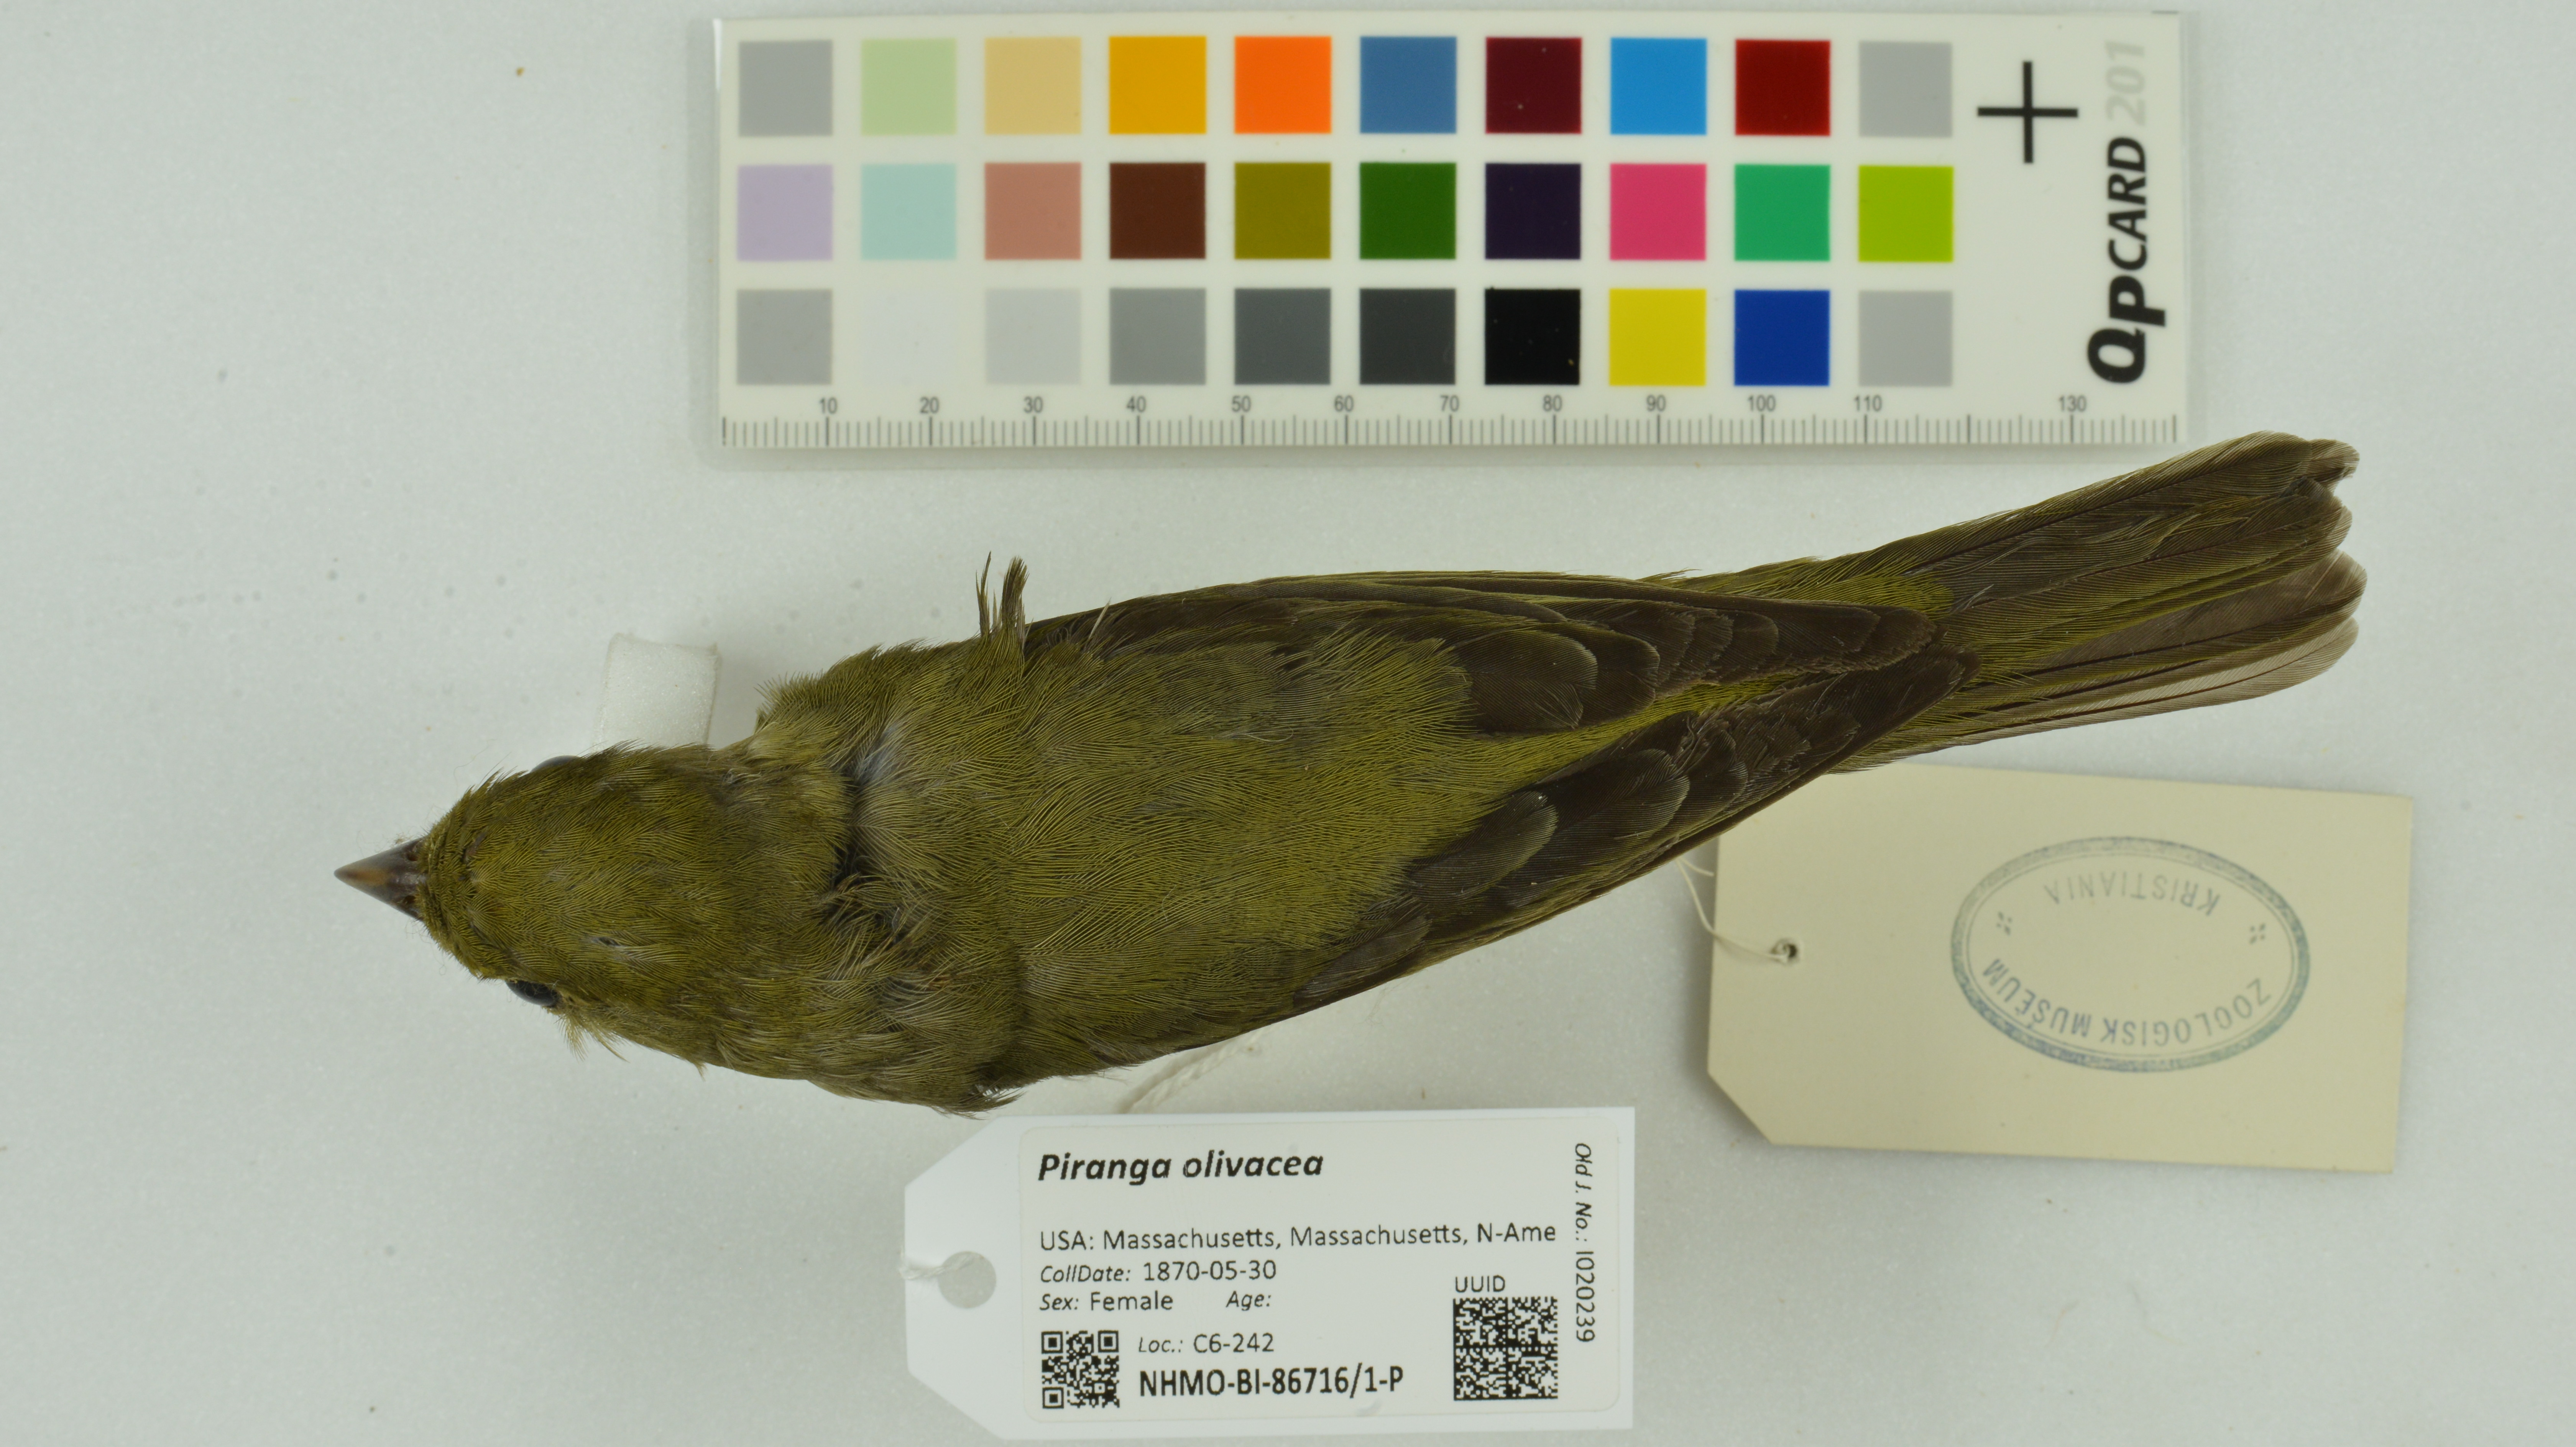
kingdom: Animalia
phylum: Chordata
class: Aves
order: Passeriformes
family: Cardinalidae
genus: Piranga
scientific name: Piranga olivacea
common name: Scarlet tanager
